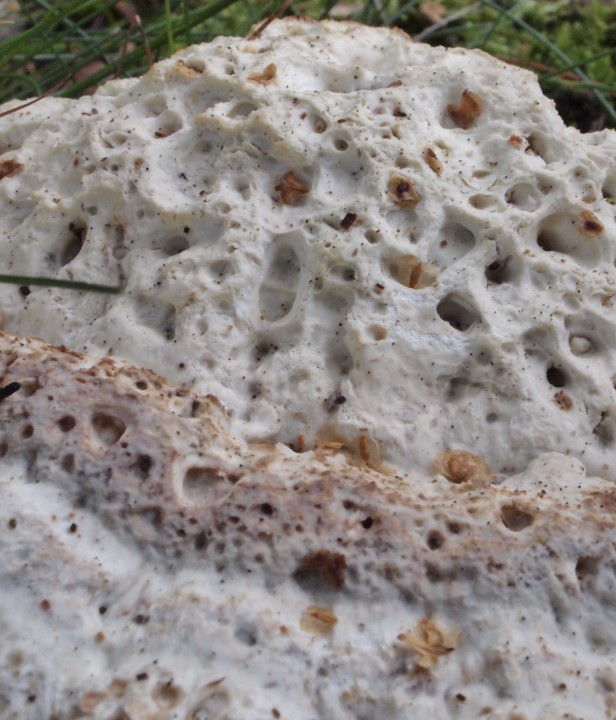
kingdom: Fungi
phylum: Basidiomycota
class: Agaricomycetes
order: Polyporales
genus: Calcipostia
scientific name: Calcipostia guttulata
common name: dråbe-kødporesvamp
